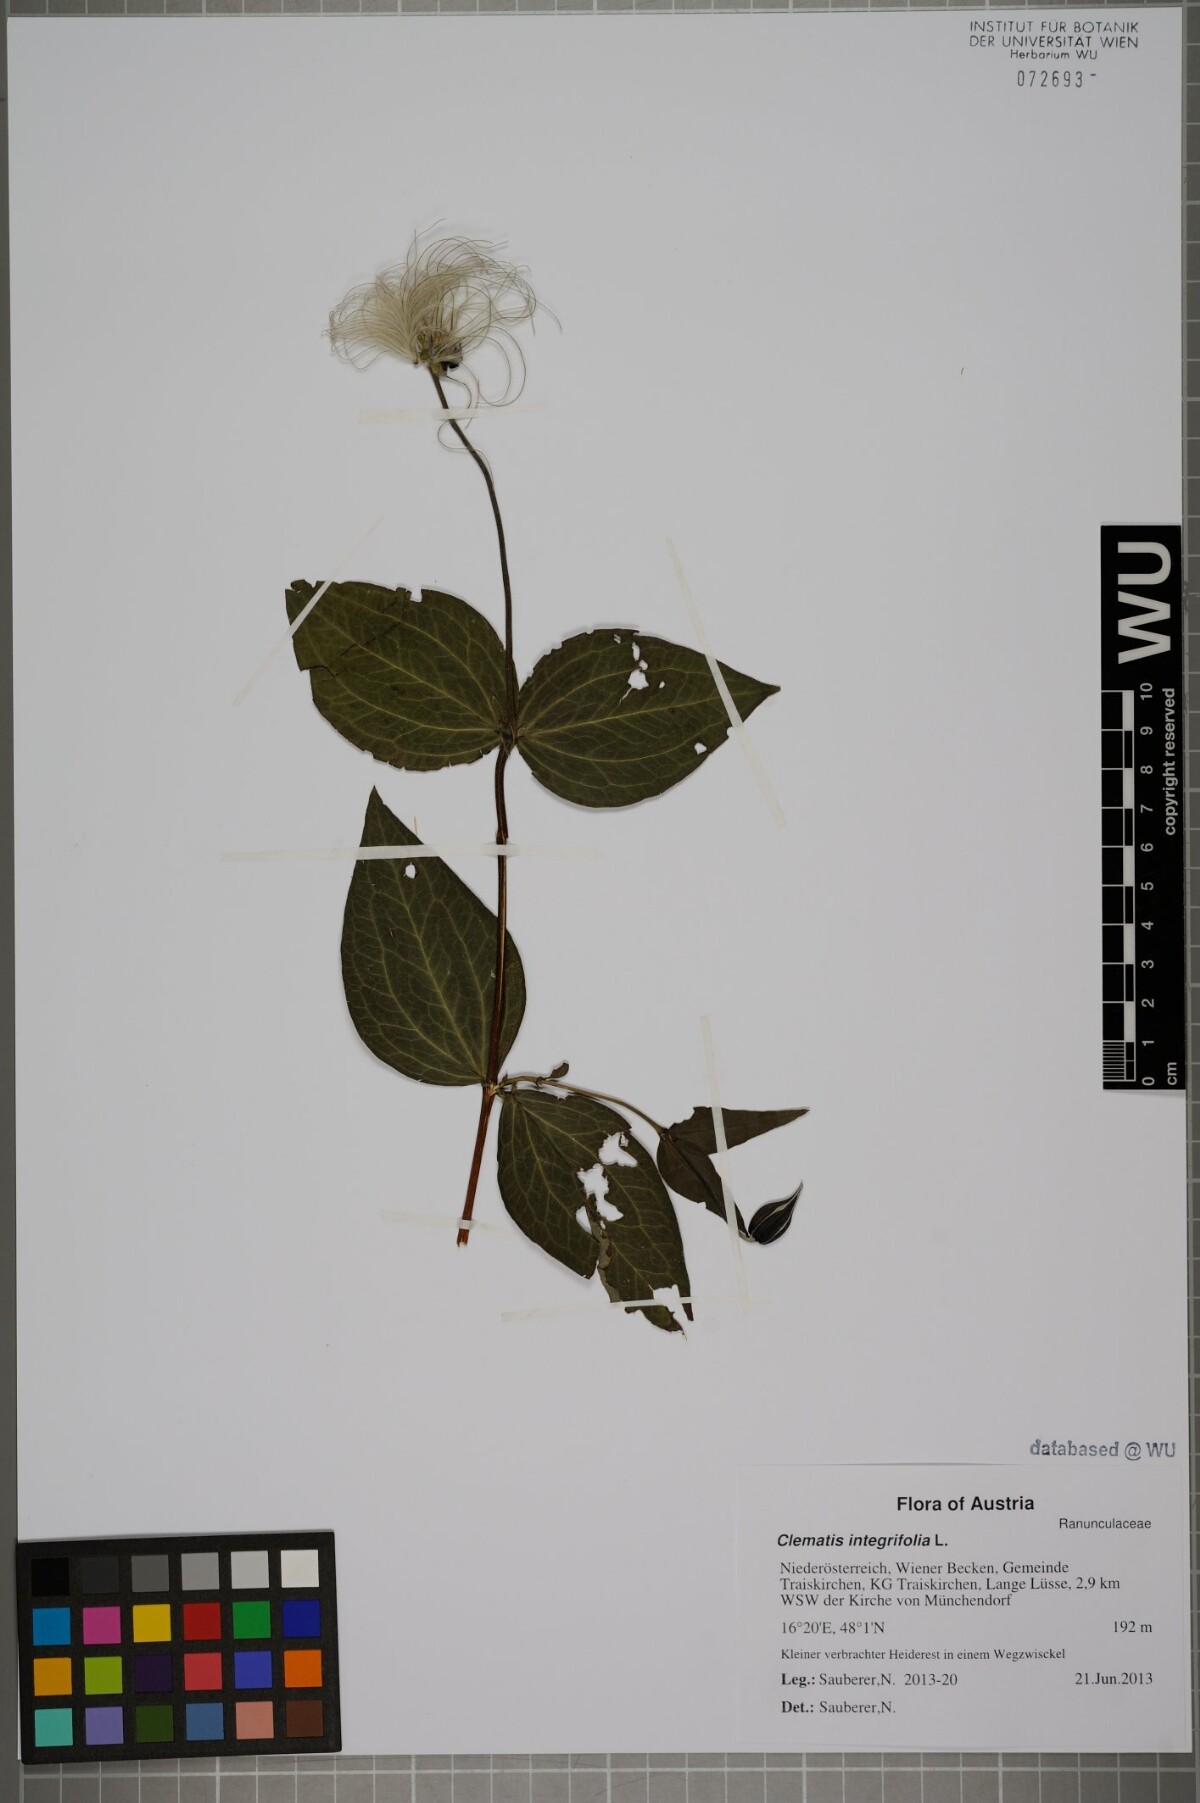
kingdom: Plantae
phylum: Tracheophyta
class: Magnoliopsida
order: Ranunculales
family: Ranunculaceae
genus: Clematis
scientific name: Clematis integrifolia
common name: Solitary clematis
